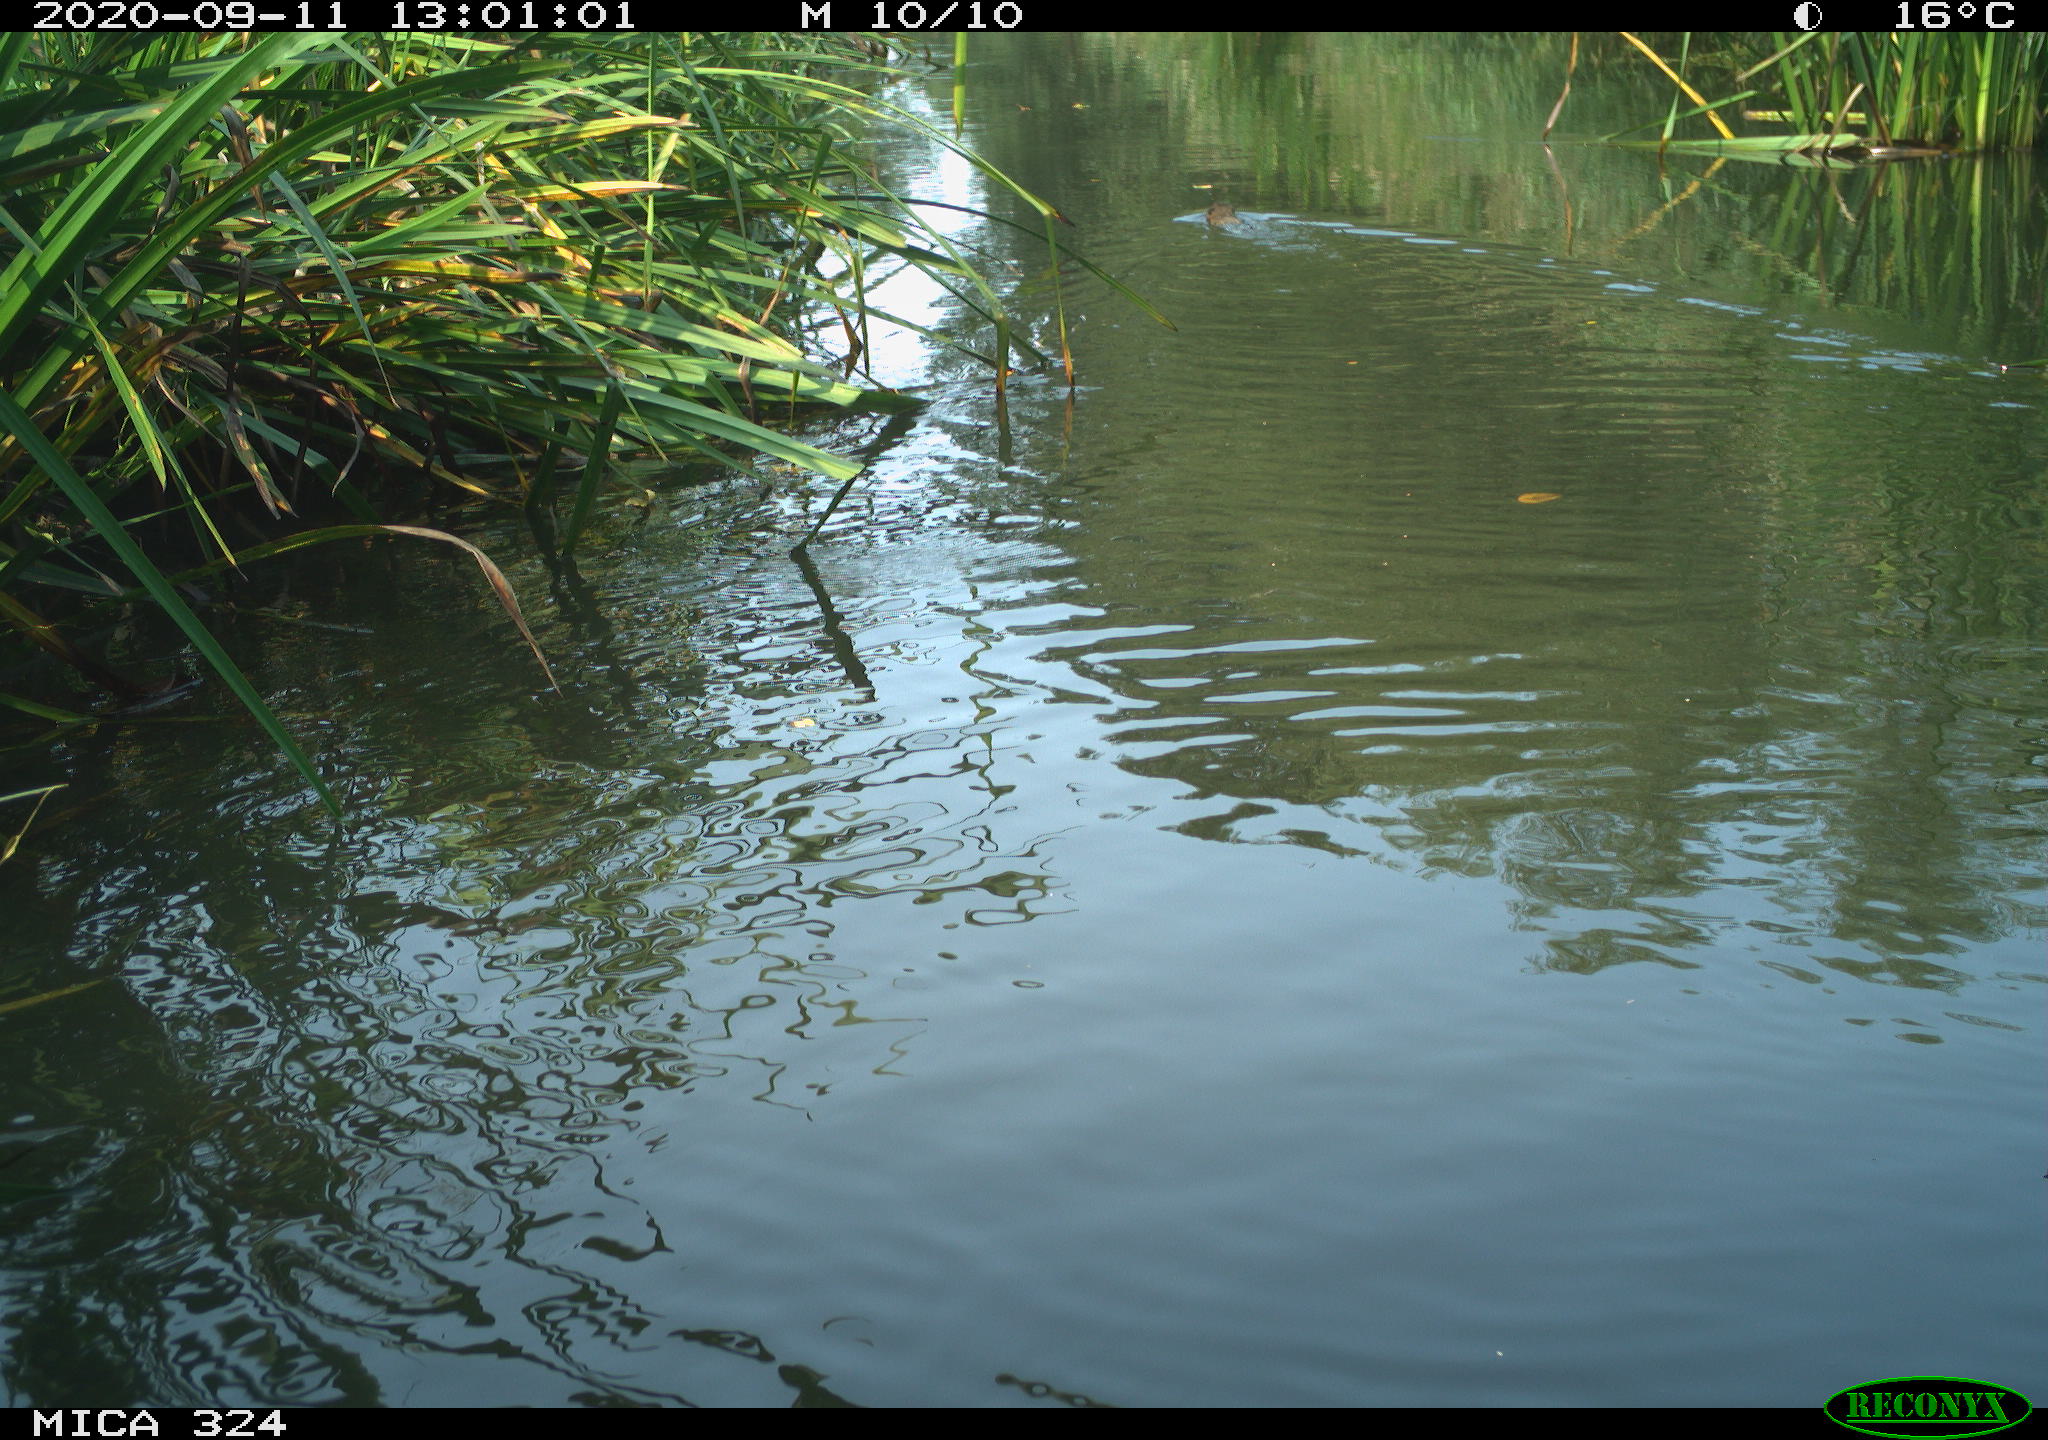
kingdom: Animalia
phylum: Chordata
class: Mammalia
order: Rodentia
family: Cricetidae
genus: Ondatra
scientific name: Ondatra zibethicus
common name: Muskrat
